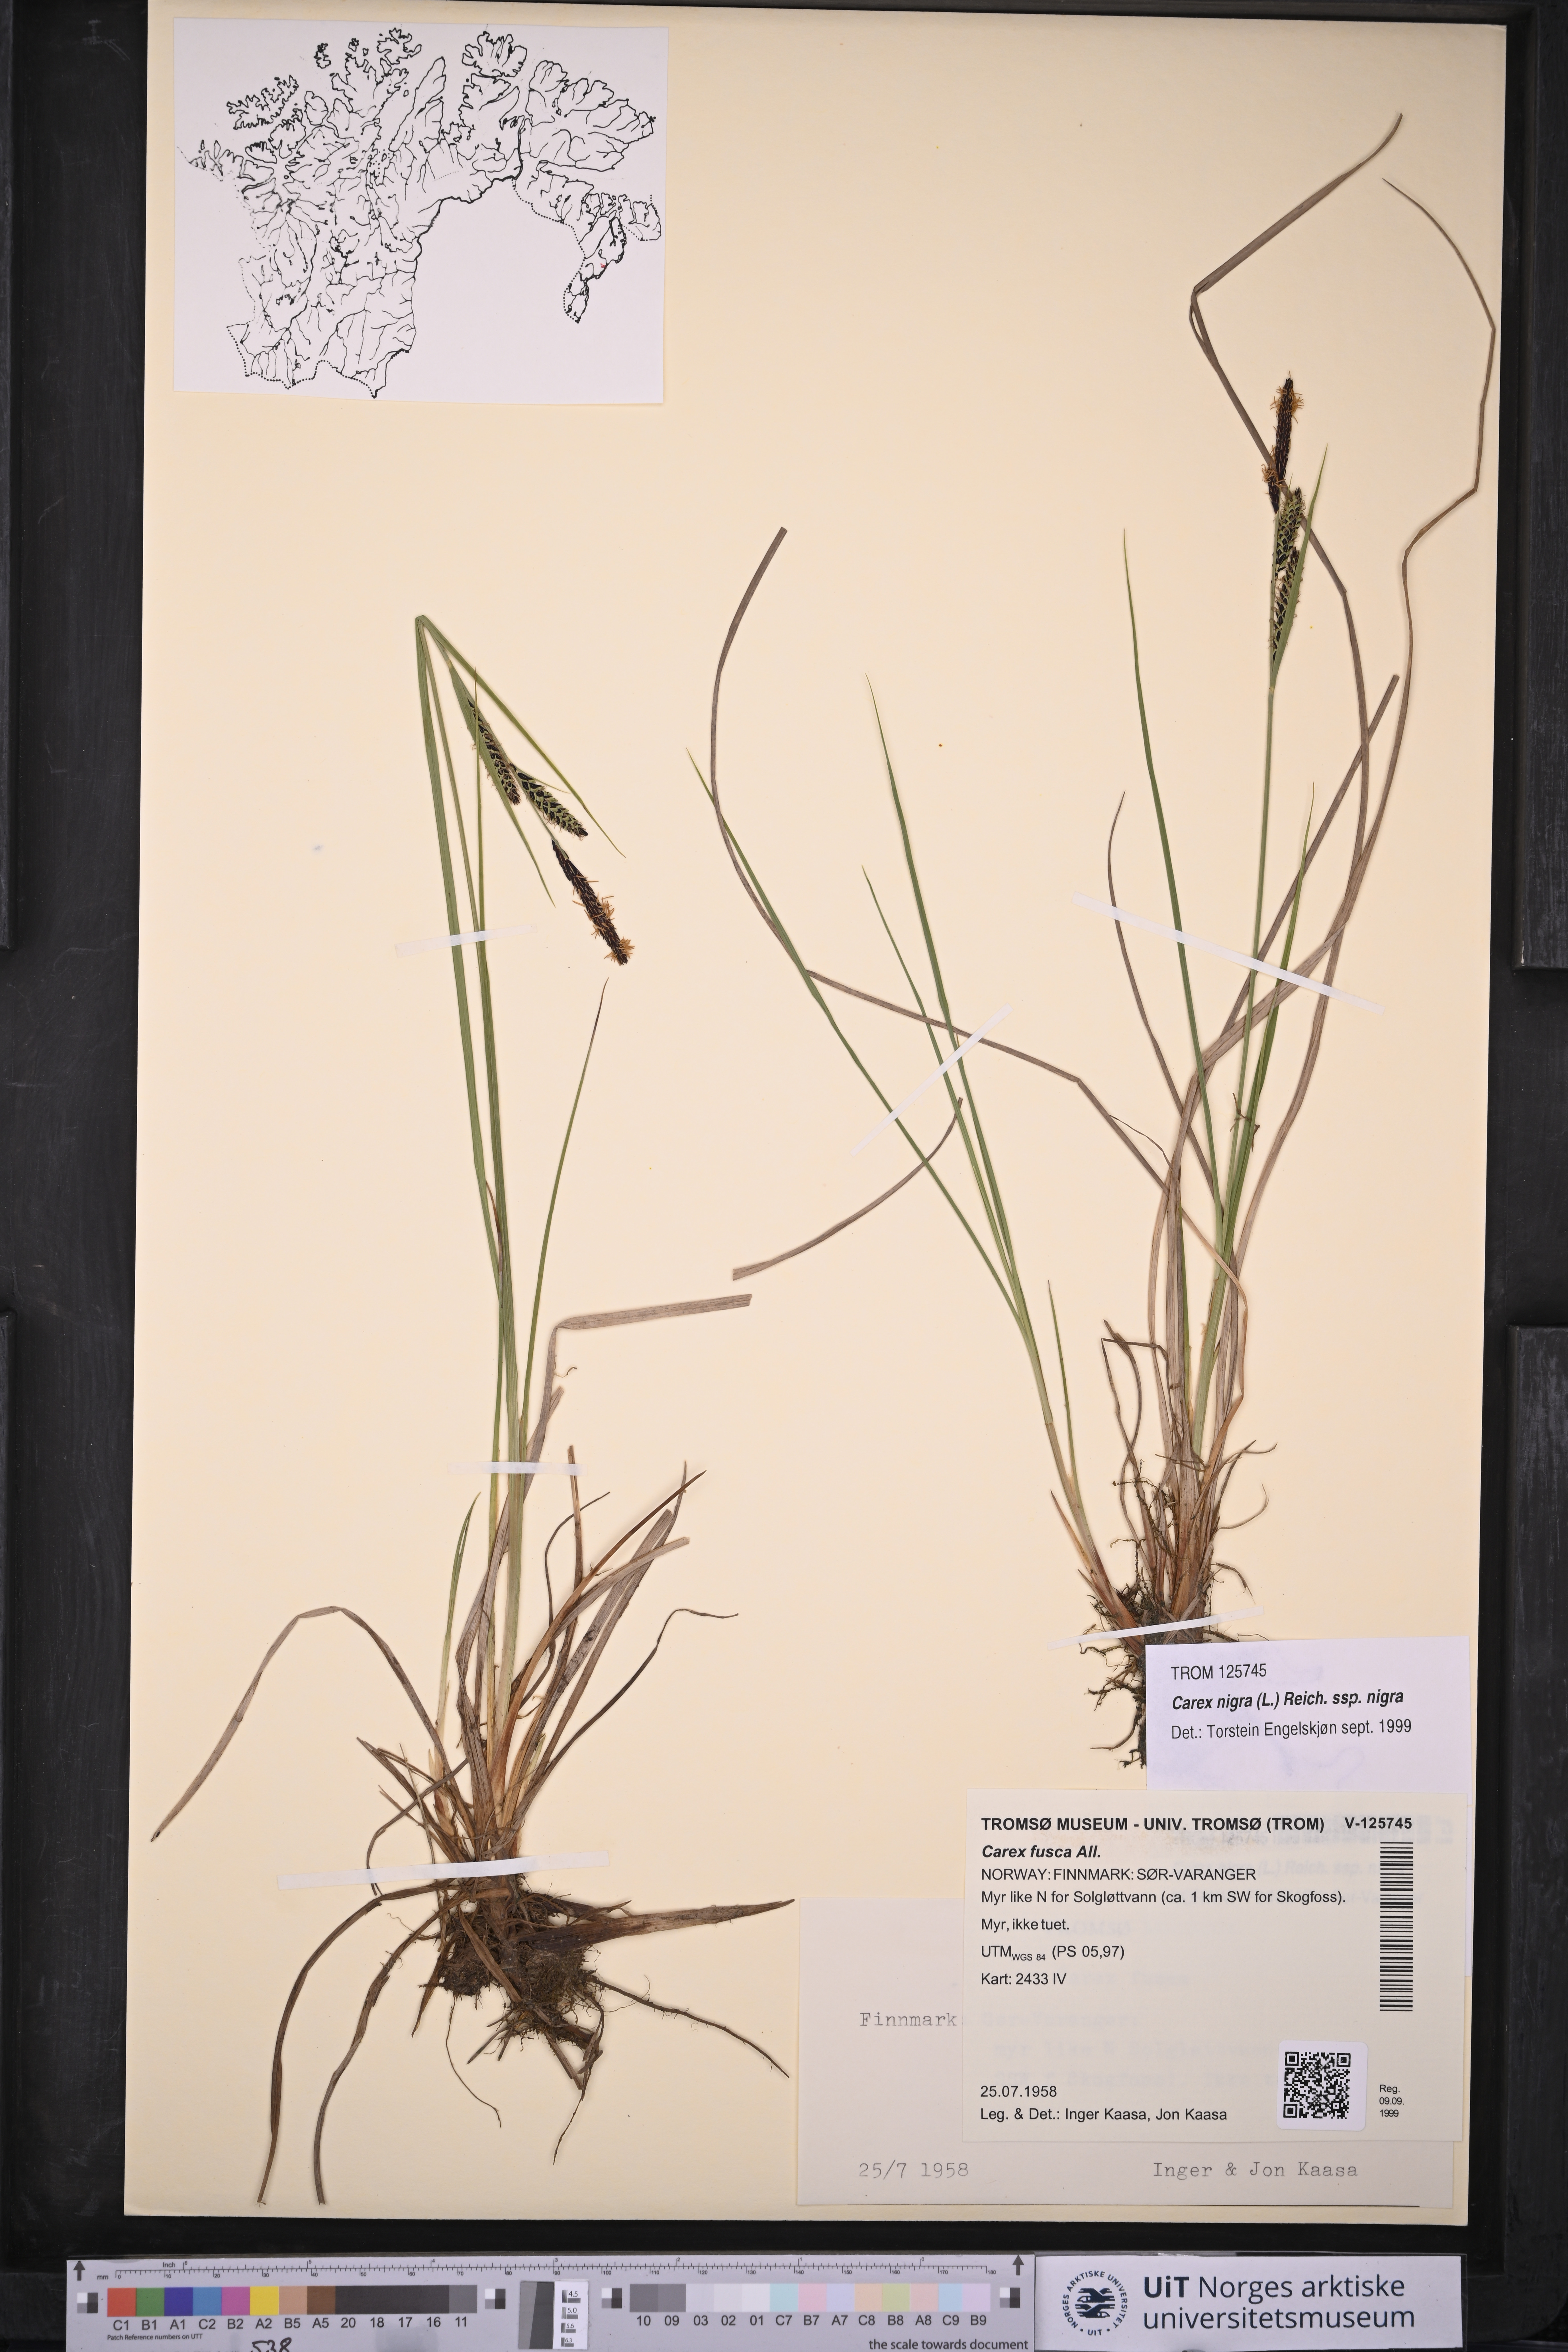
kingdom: Plantae
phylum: Tracheophyta
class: Liliopsida
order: Poales
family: Cyperaceae
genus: Carex
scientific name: Carex nigra
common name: Common sedge
